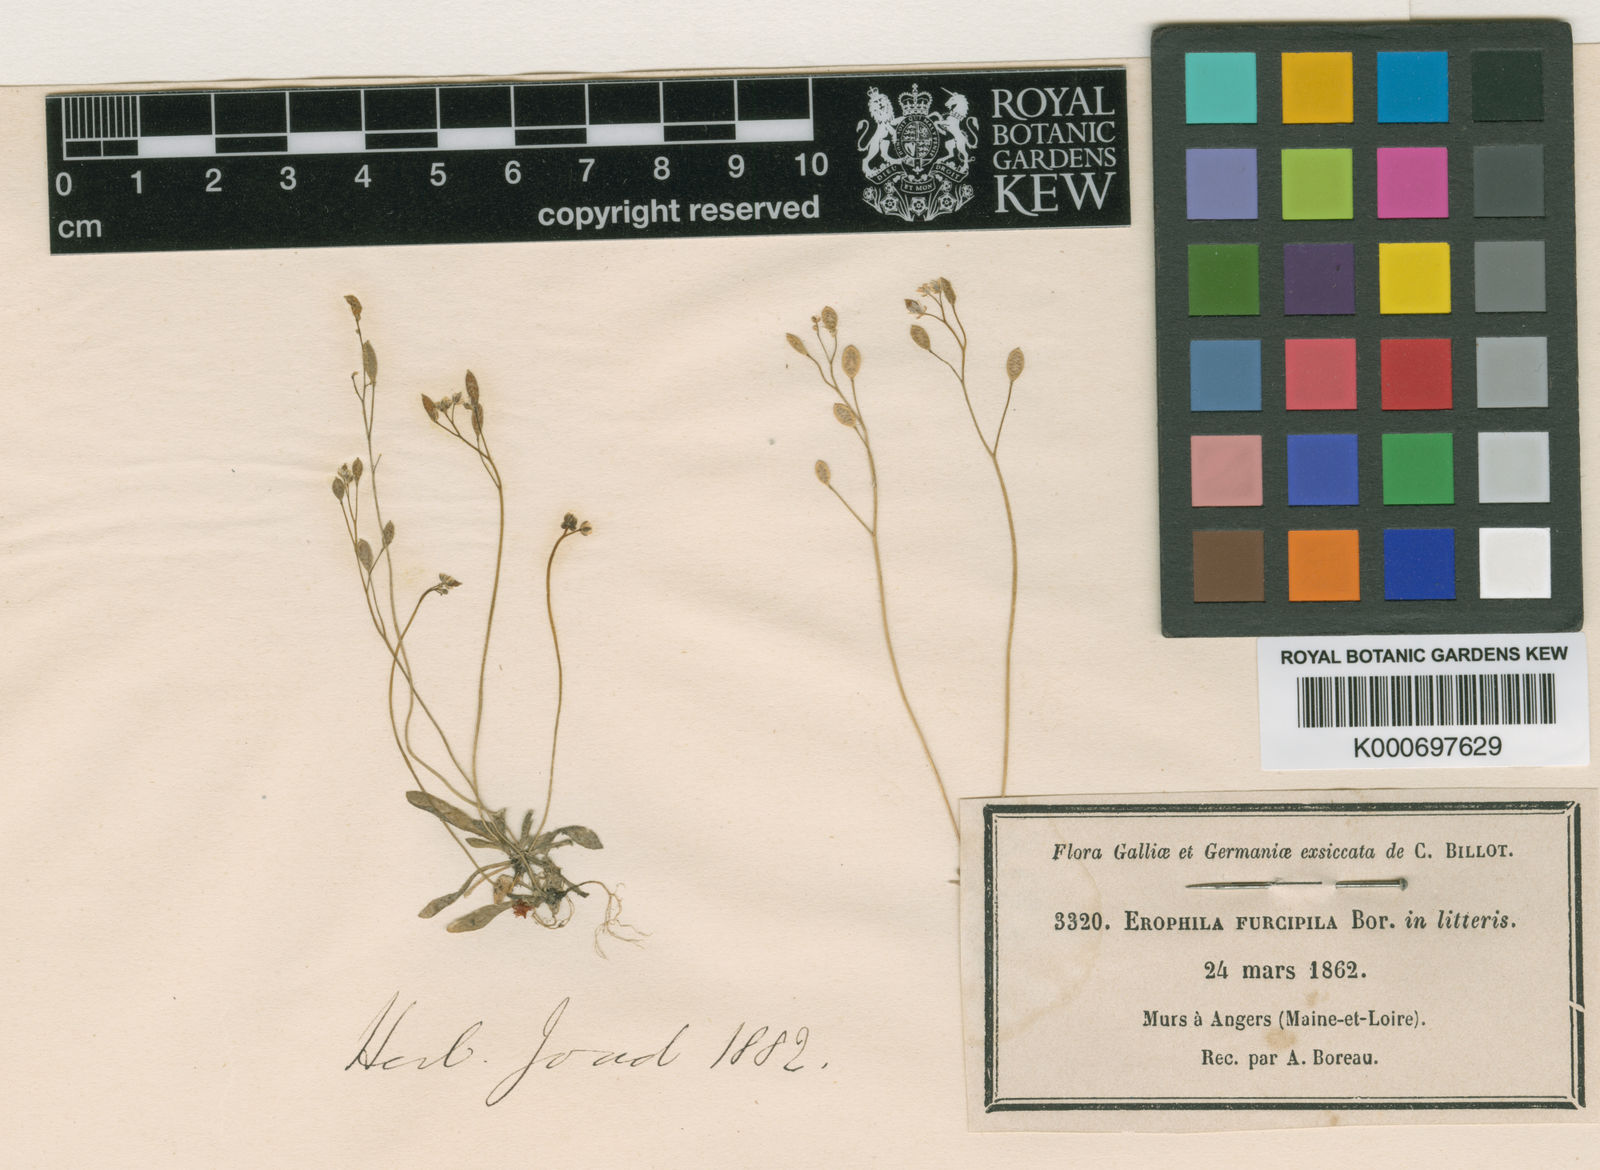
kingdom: Plantae
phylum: Tracheophyta
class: Magnoliopsida
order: Brassicales
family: Brassicaceae
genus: Draba
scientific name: Draba verna
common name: Spring draba
